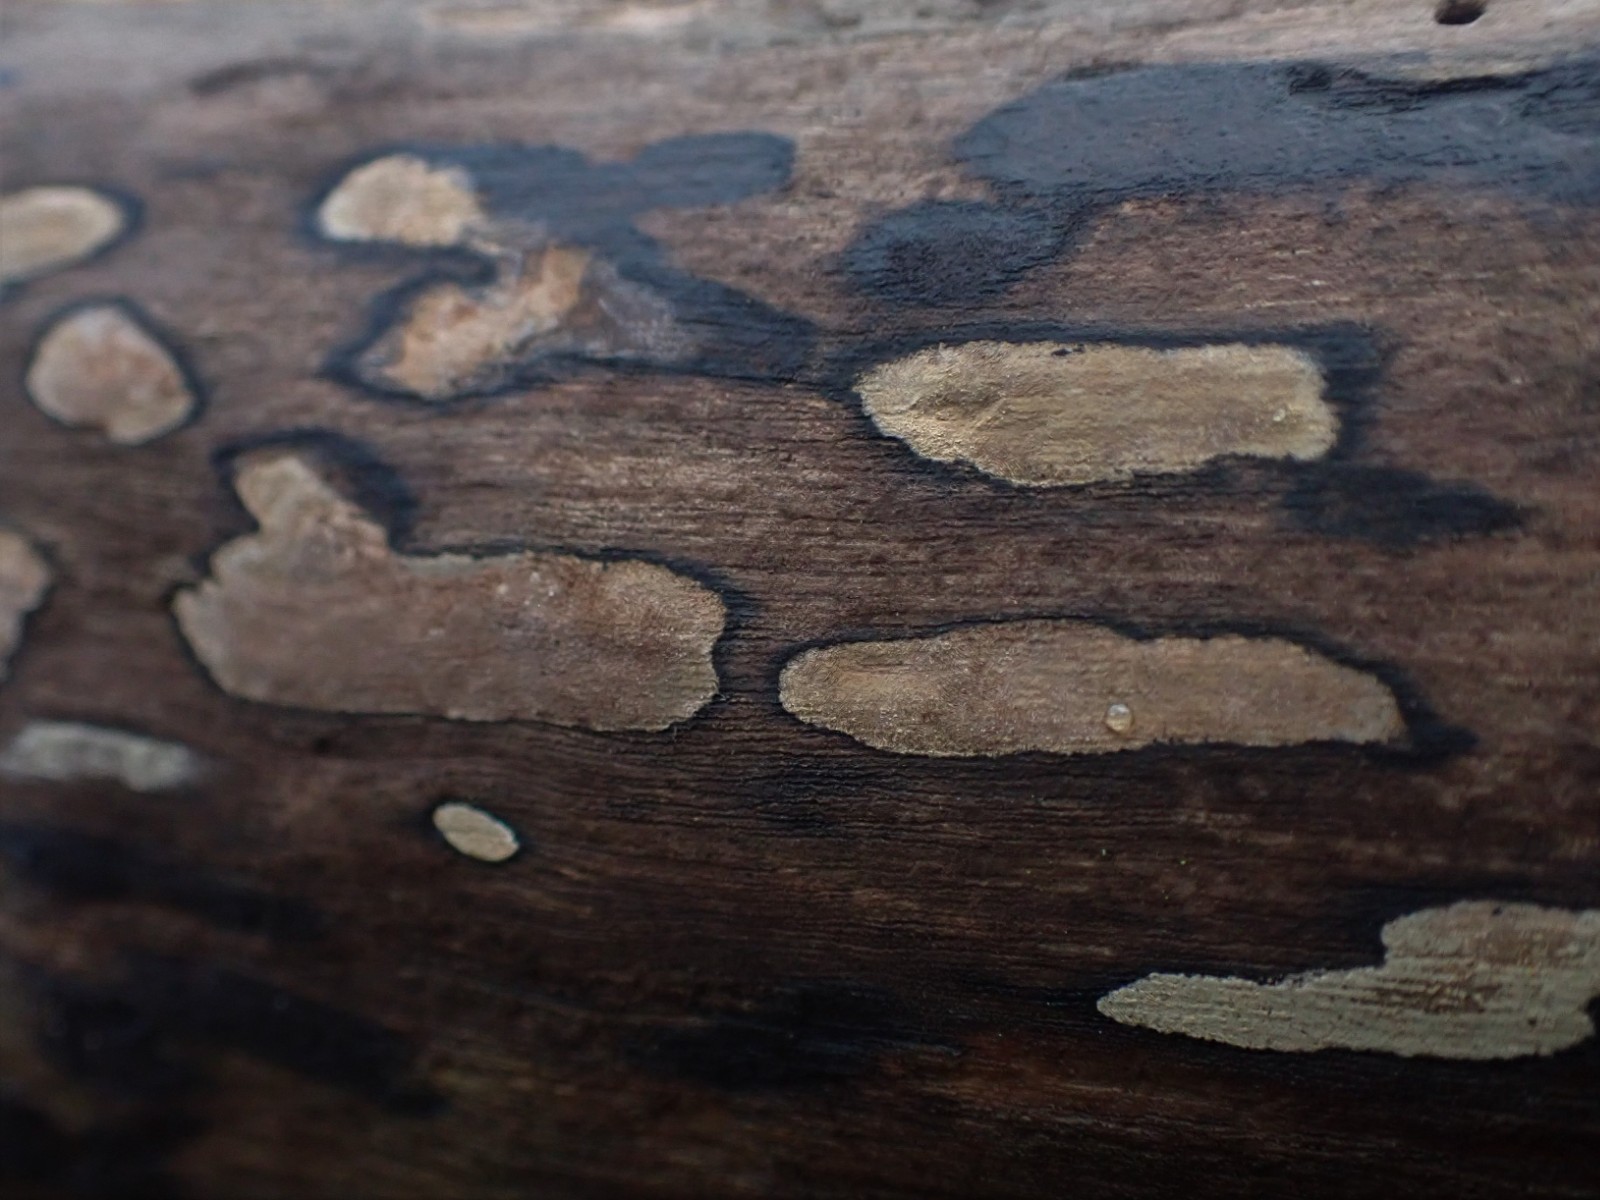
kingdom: Fungi
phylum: Ascomycota
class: Sordariomycetes
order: Xylariales
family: Hypoxylaceae
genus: Hypoxylon
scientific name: Hypoxylon petriniae
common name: nedsænket kulbær
